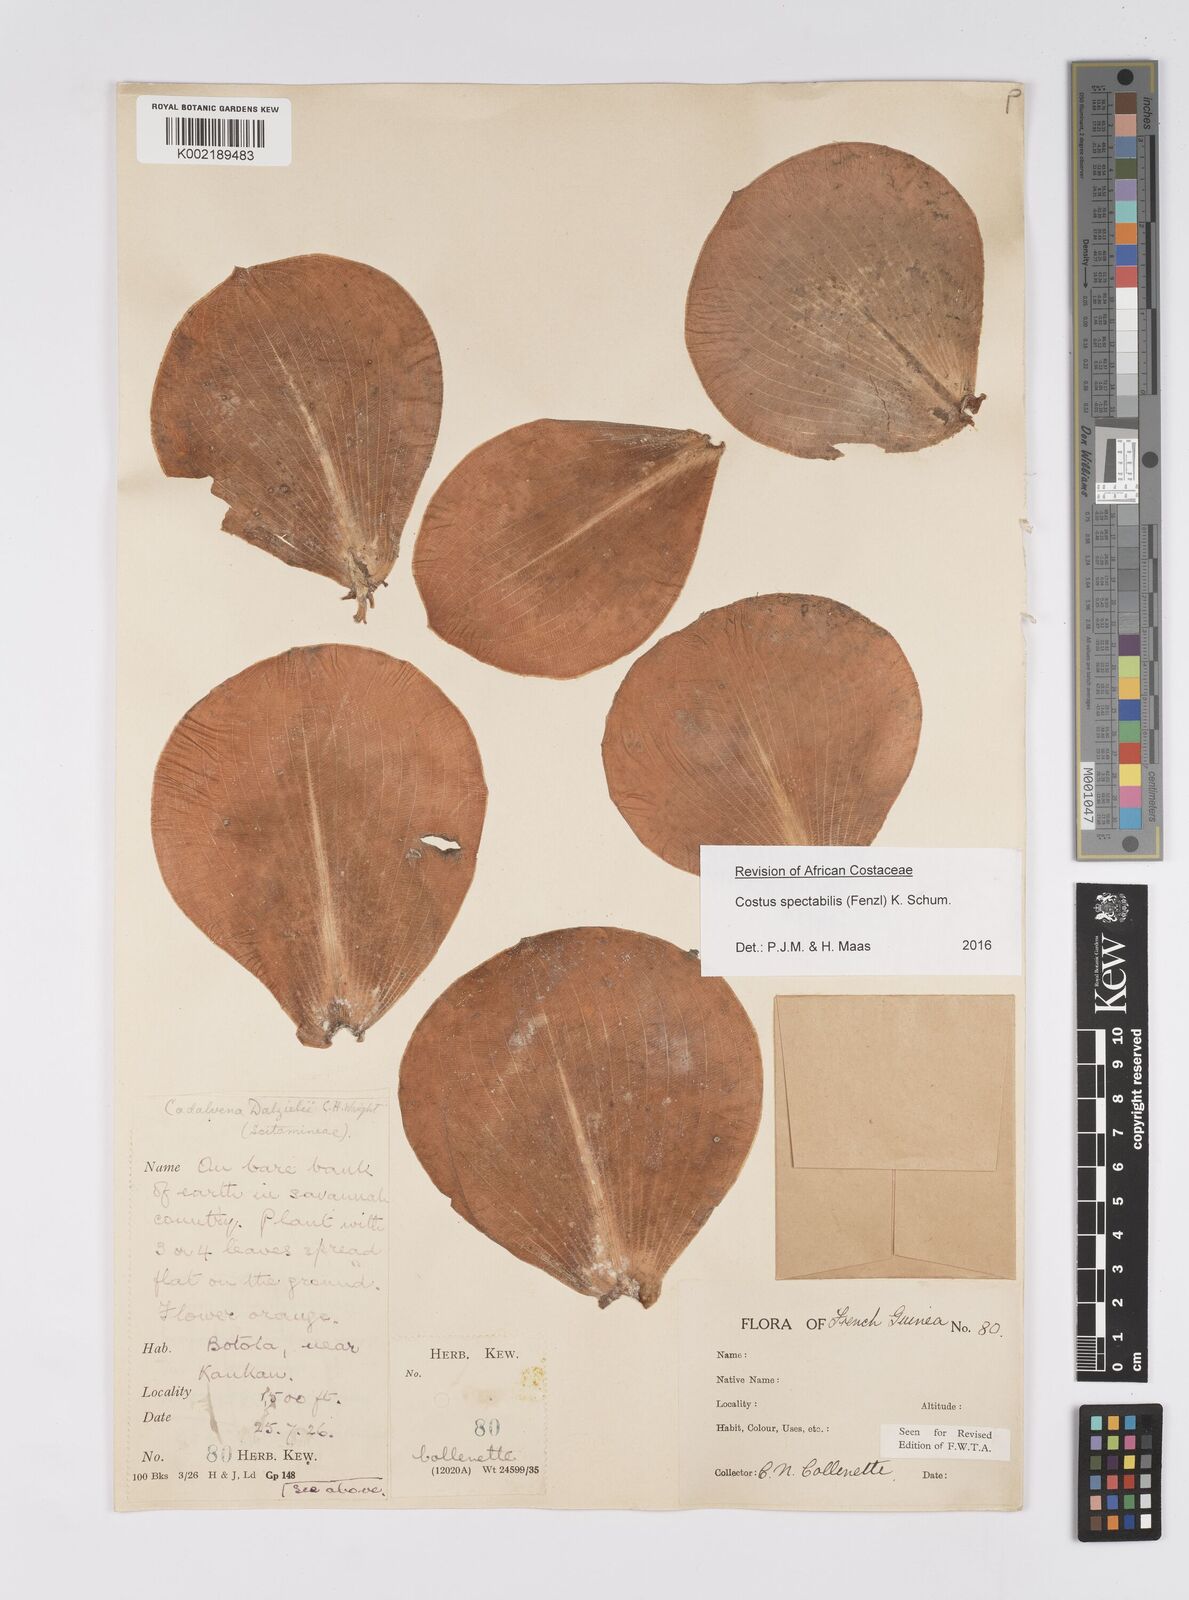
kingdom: Plantae
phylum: Tracheophyta
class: Liliopsida
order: Zingiberales
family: Costaceae
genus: Costus
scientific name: Costus spectabilis
